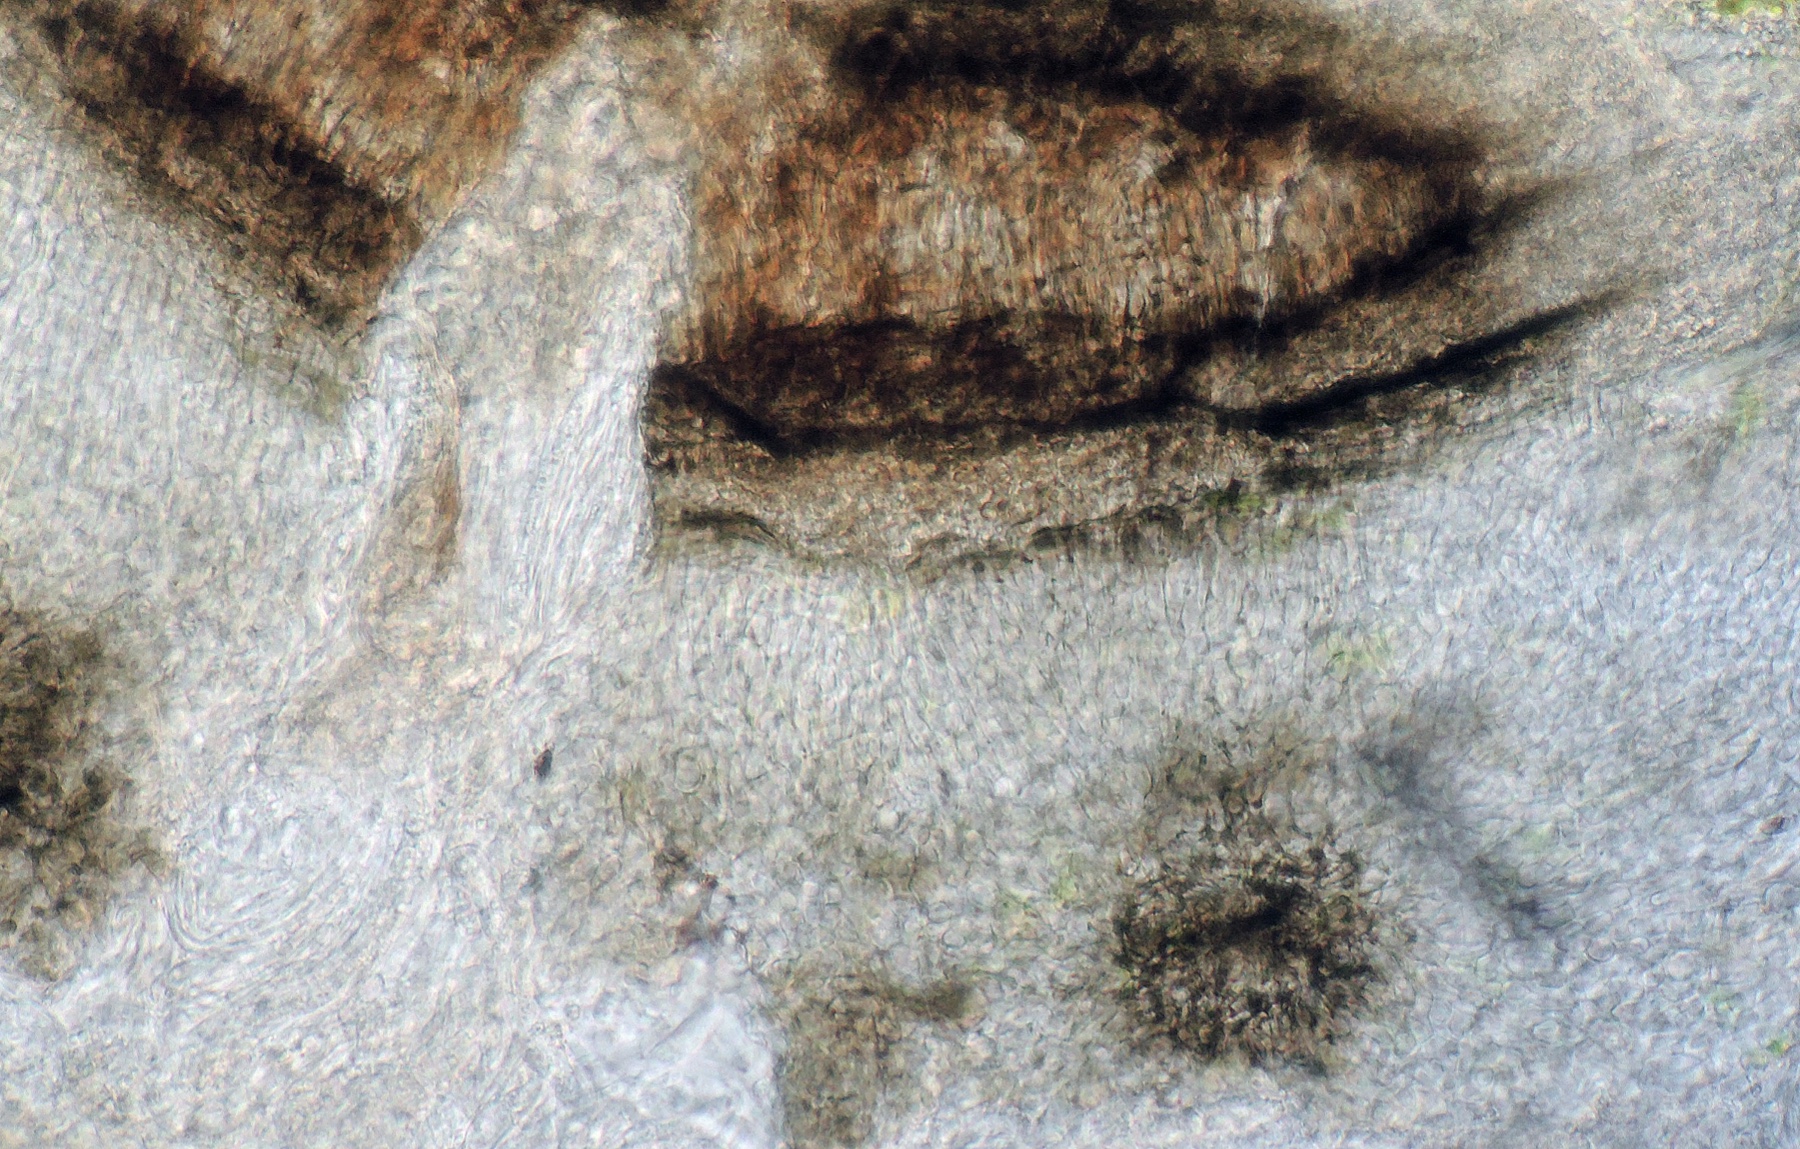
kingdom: Fungi
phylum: Ascomycota
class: Leotiomycetes
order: Helotiales
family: Drepanopezizaceae
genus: Leptotrochila
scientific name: Leptotrochila verrucosa
